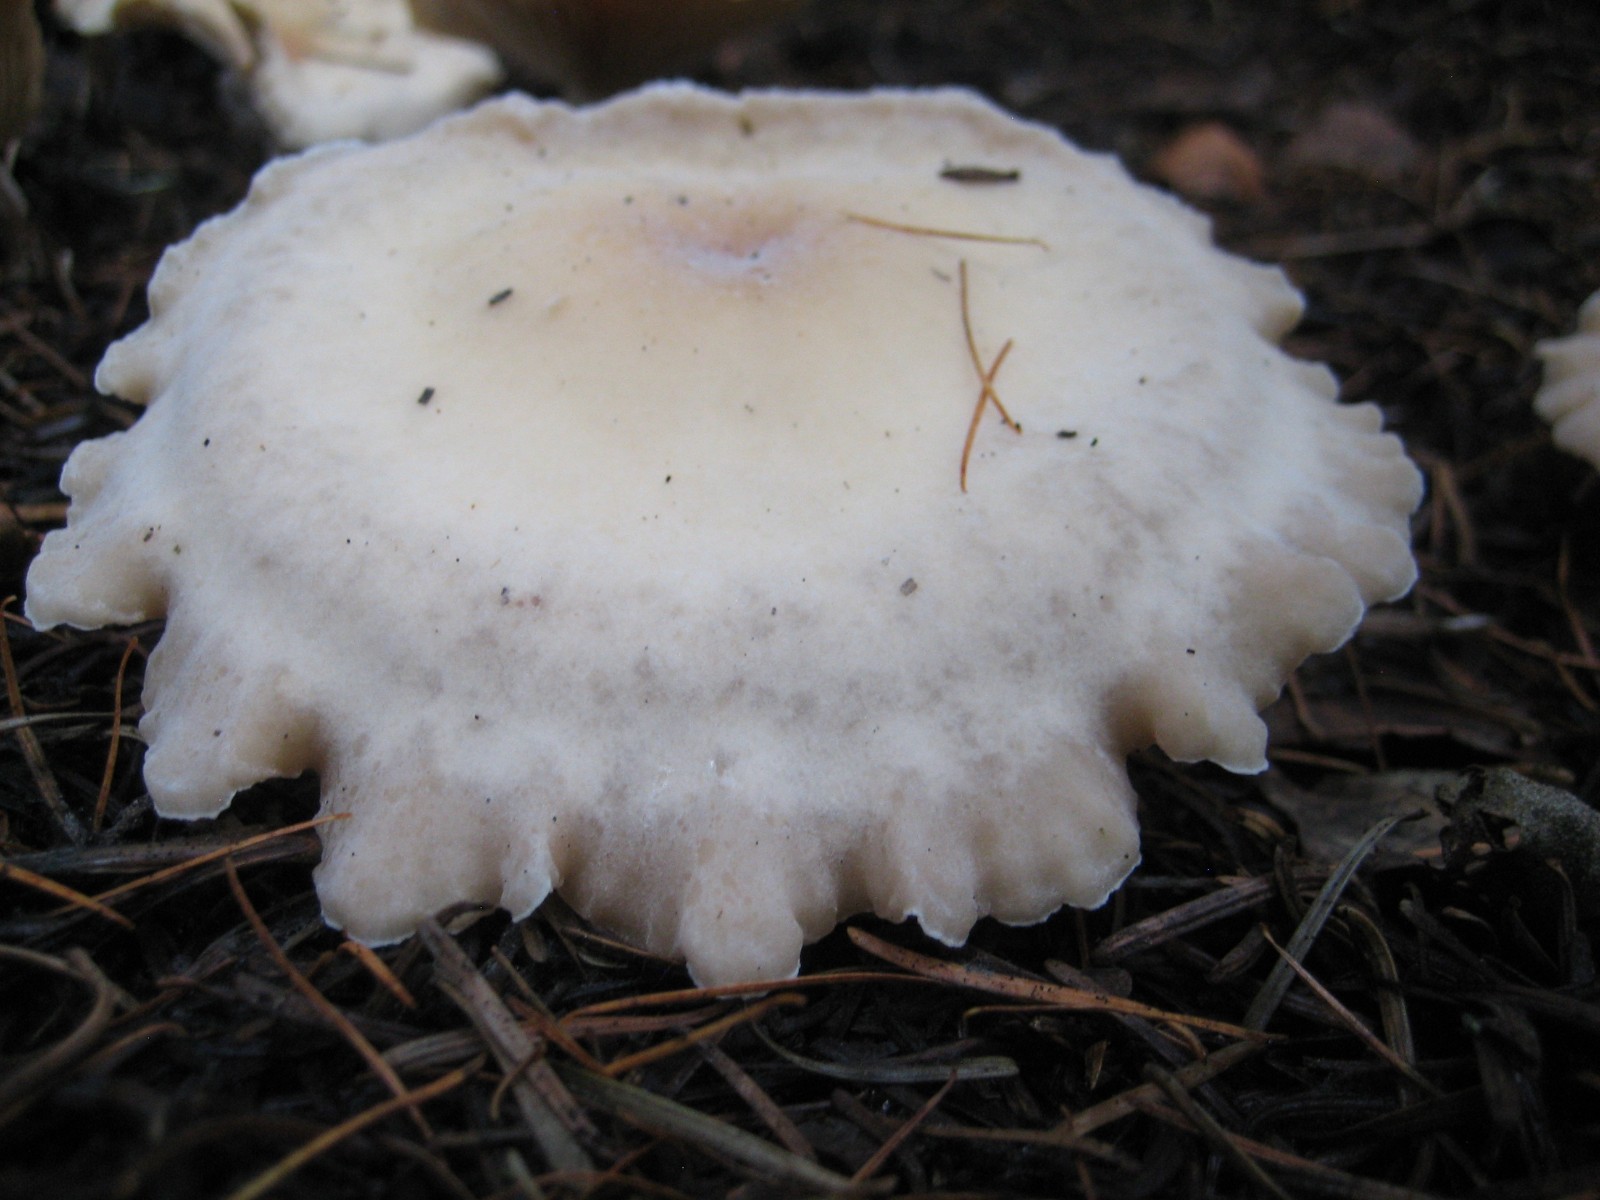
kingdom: Fungi
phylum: Basidiomycota
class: Agaricomycetes
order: Agaricales
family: Tricholomataceae
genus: Clitocybe
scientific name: Clitocybe phyllophila
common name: løv-tragthat
